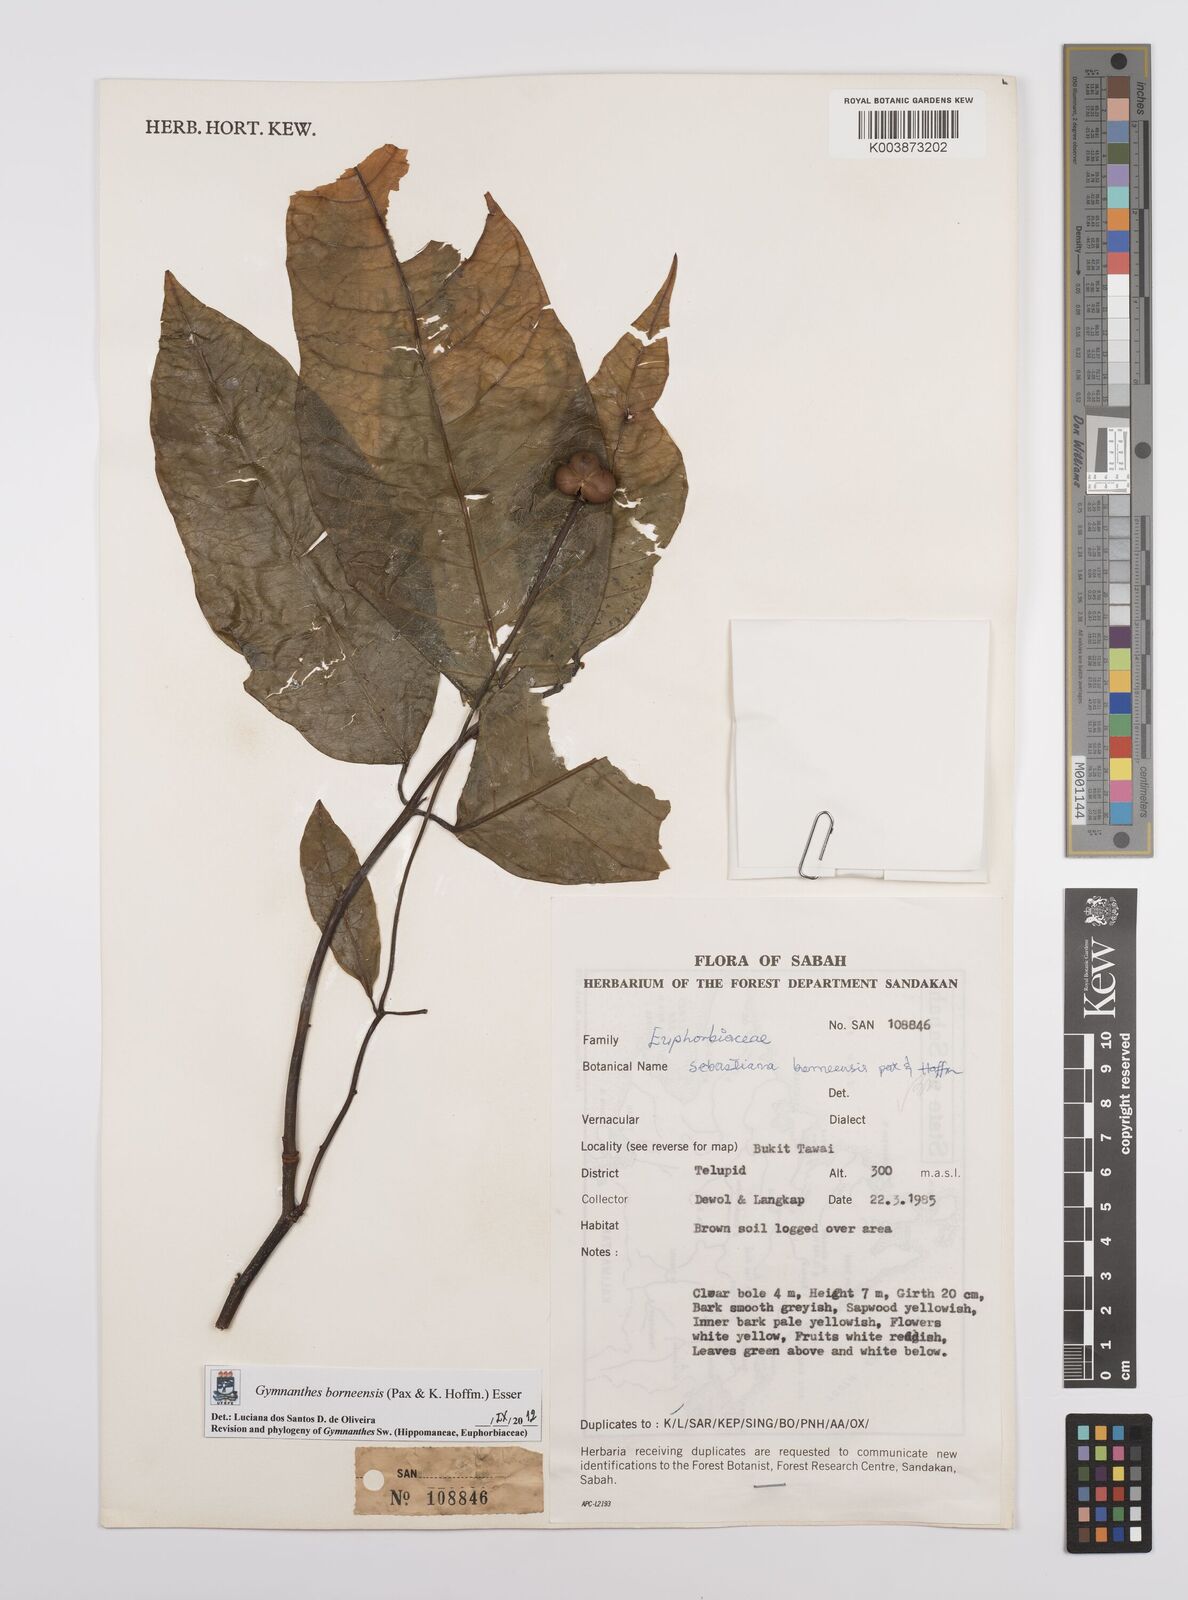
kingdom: Plantae
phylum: Tracheophyta
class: Magnoliopsida
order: Malpighiales
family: Euphorbiaceae
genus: Gymnanthes
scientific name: Gymnanthes borneensis
